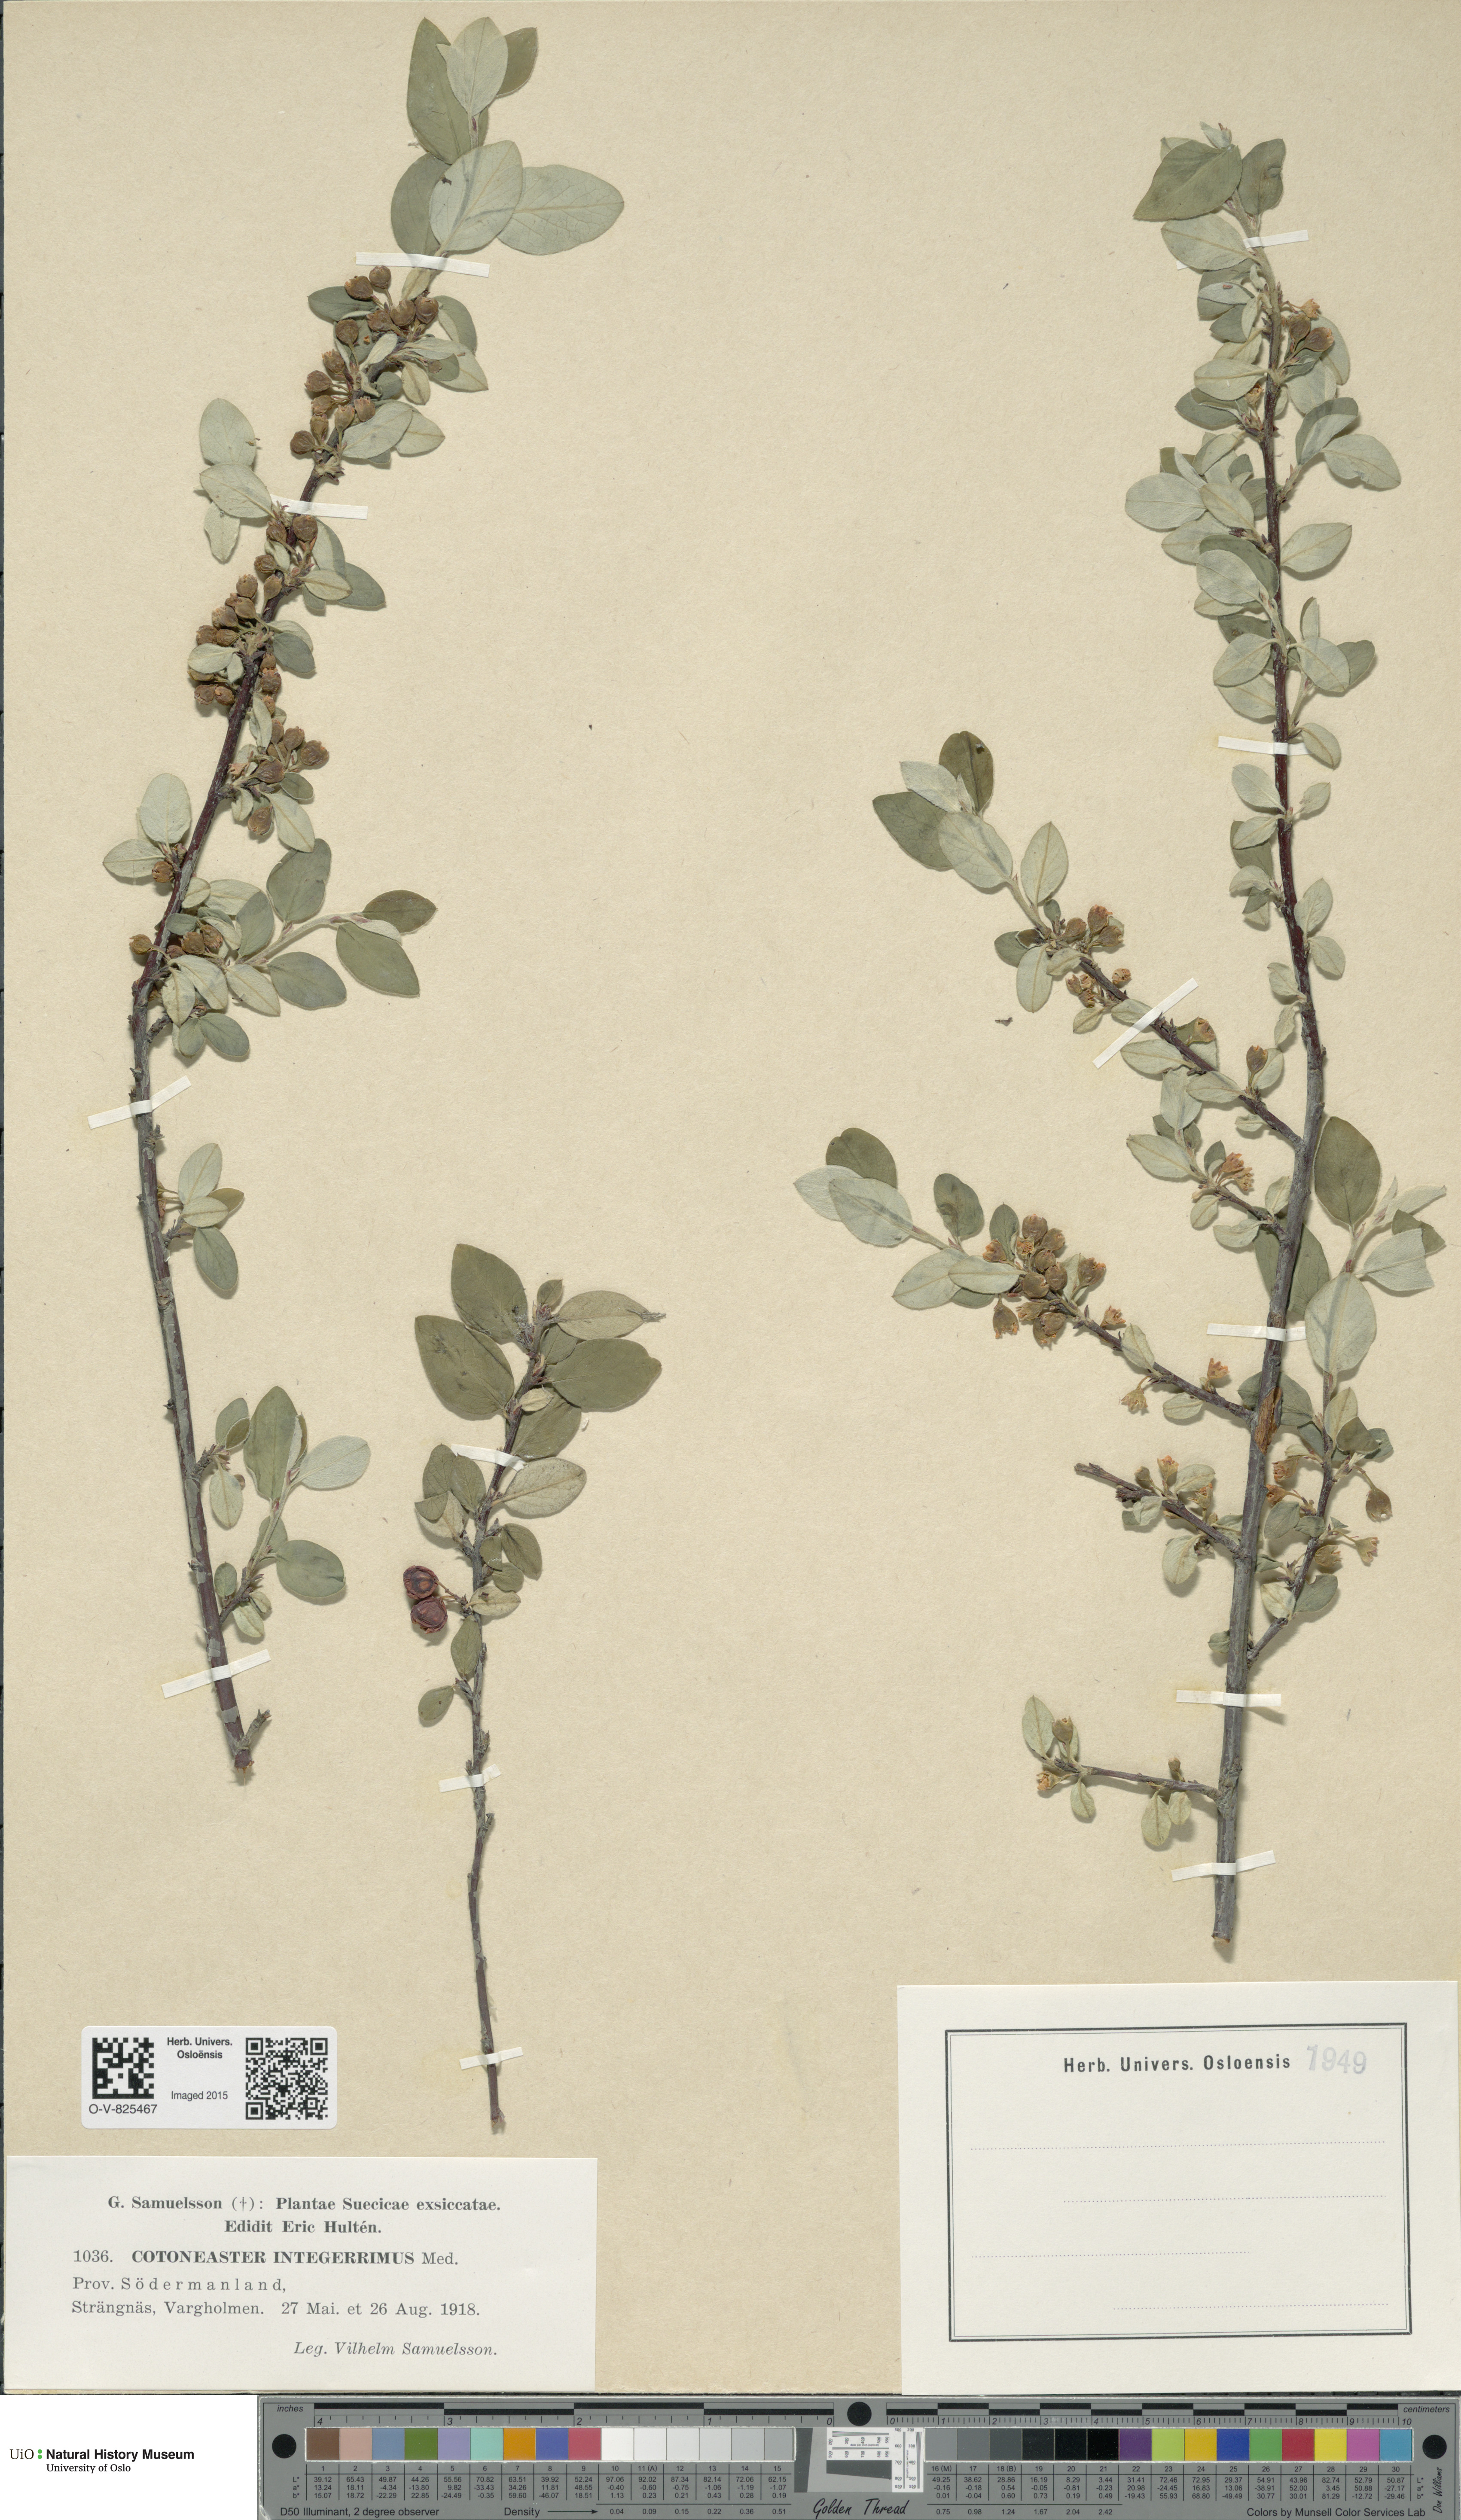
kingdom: Plantae
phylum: Tracheophyta
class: Magnoliopsida
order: Rosales
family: Rosaceae
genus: Cotoneaster
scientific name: Cotoneaster integerrimus
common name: Wild cotoneaster
